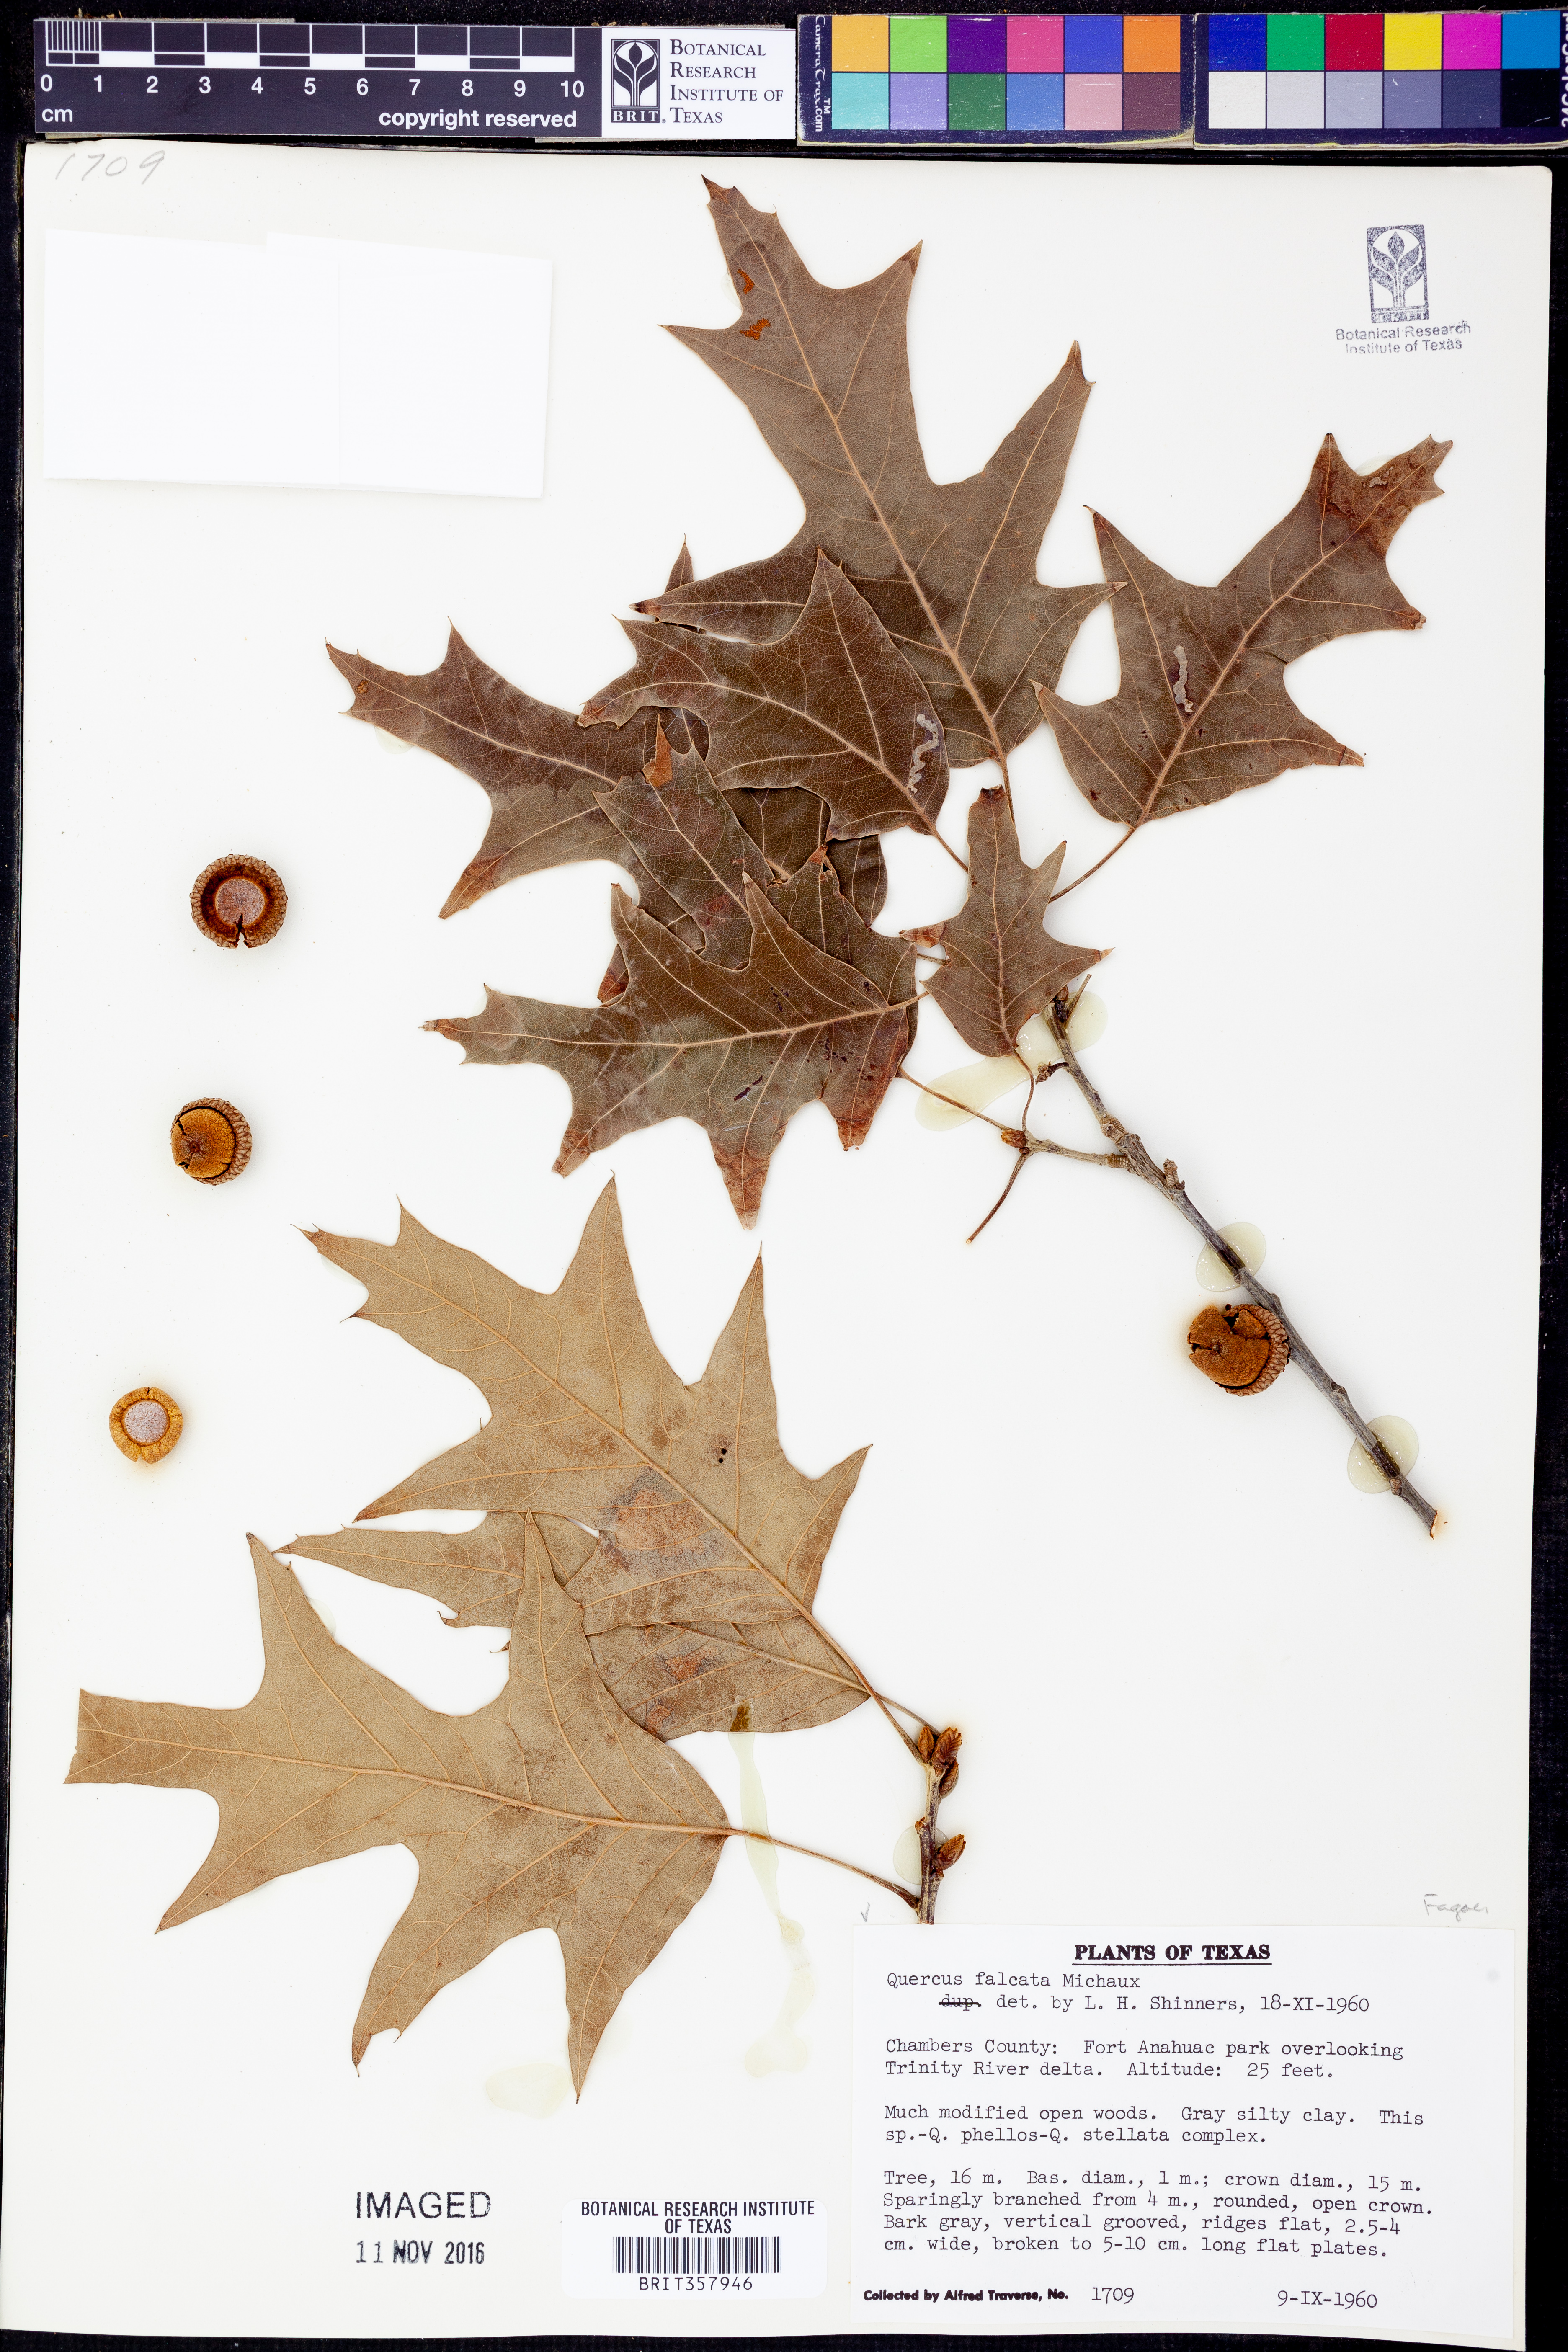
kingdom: Plantae
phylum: Tracheophyta
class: Magnoliopsida
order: Fagales
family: Fagaceae
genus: Quercus
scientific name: Quercus falcata
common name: Southern red oak
